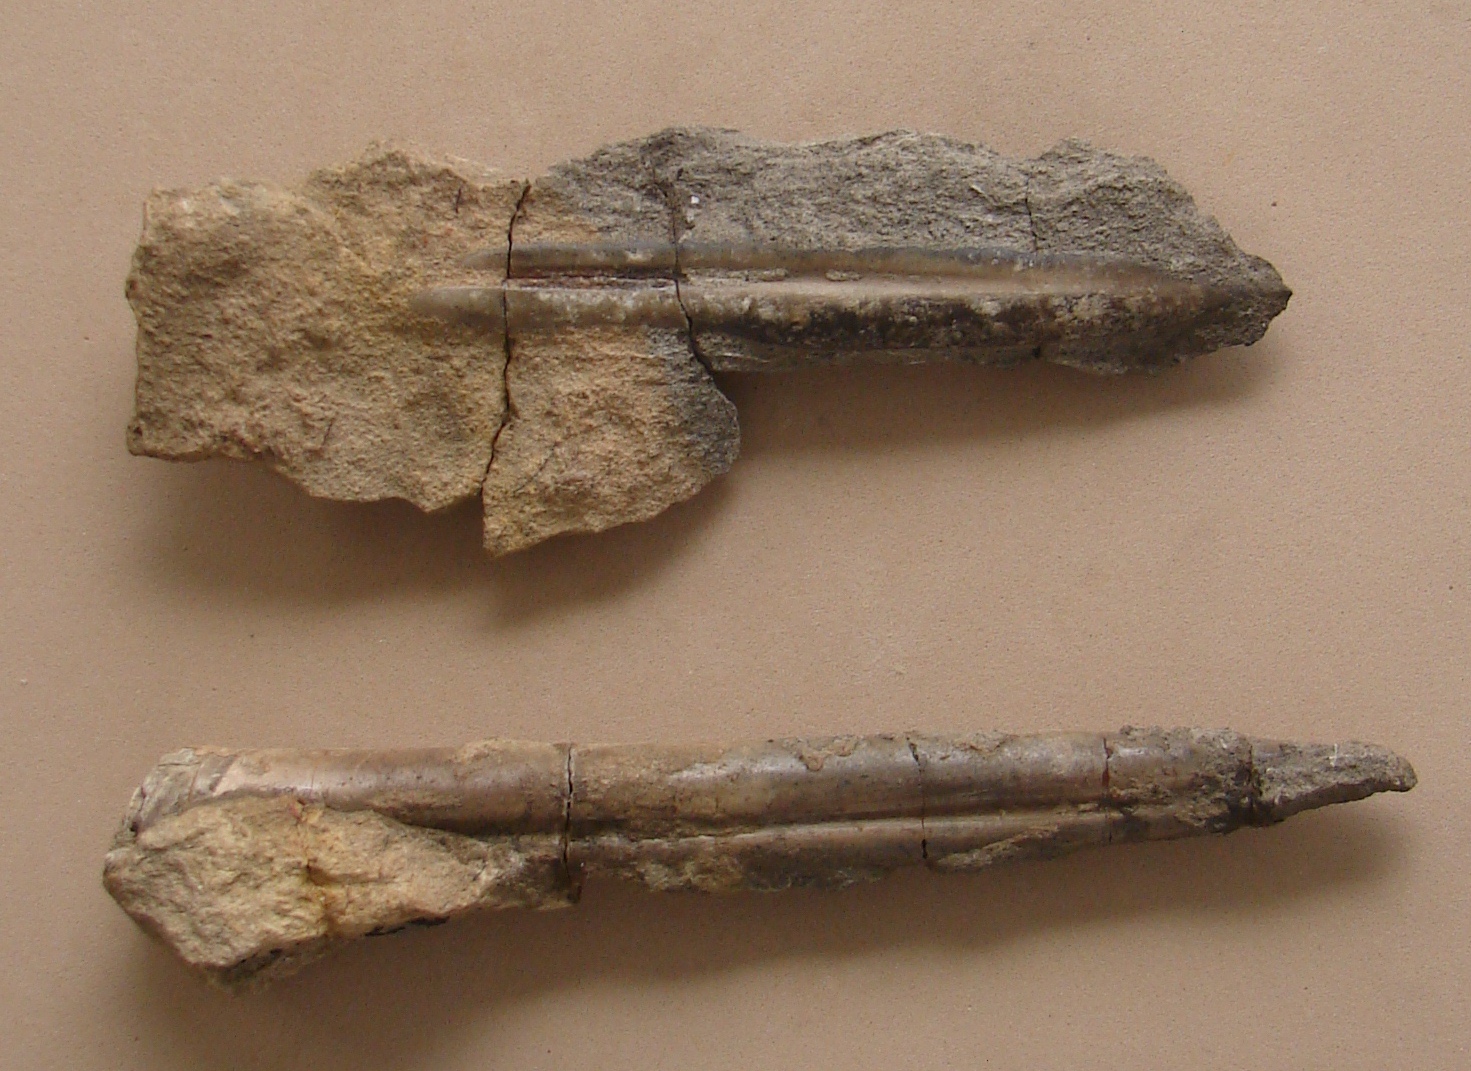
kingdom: Animalia
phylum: Mollusca
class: Cephalopoda
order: Belemnitida
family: Belemnitidae
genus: Belemnites
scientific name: Belemnites
